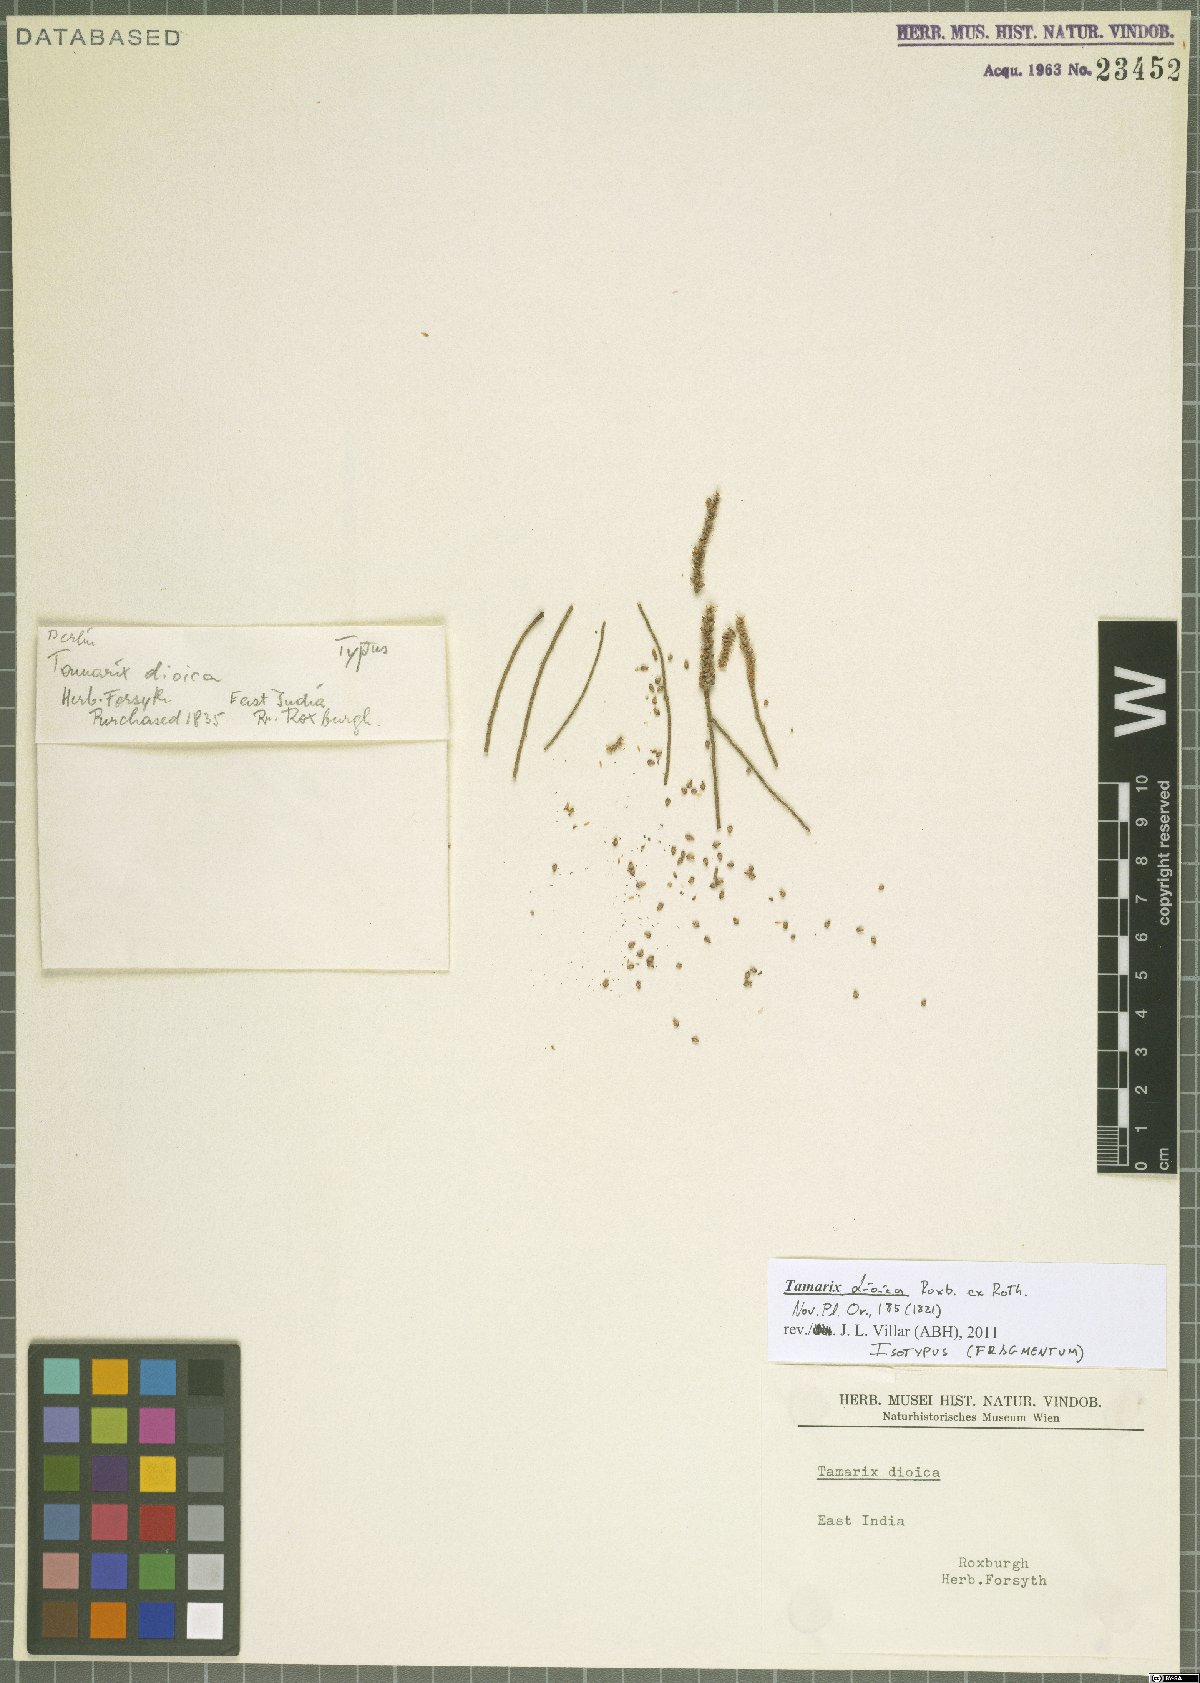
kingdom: Plantae
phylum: Tracheophyta
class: Magnoliopsida
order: Caryophyllales
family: Tamaricaceae
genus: Tamarix
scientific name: Tamarix dioica
